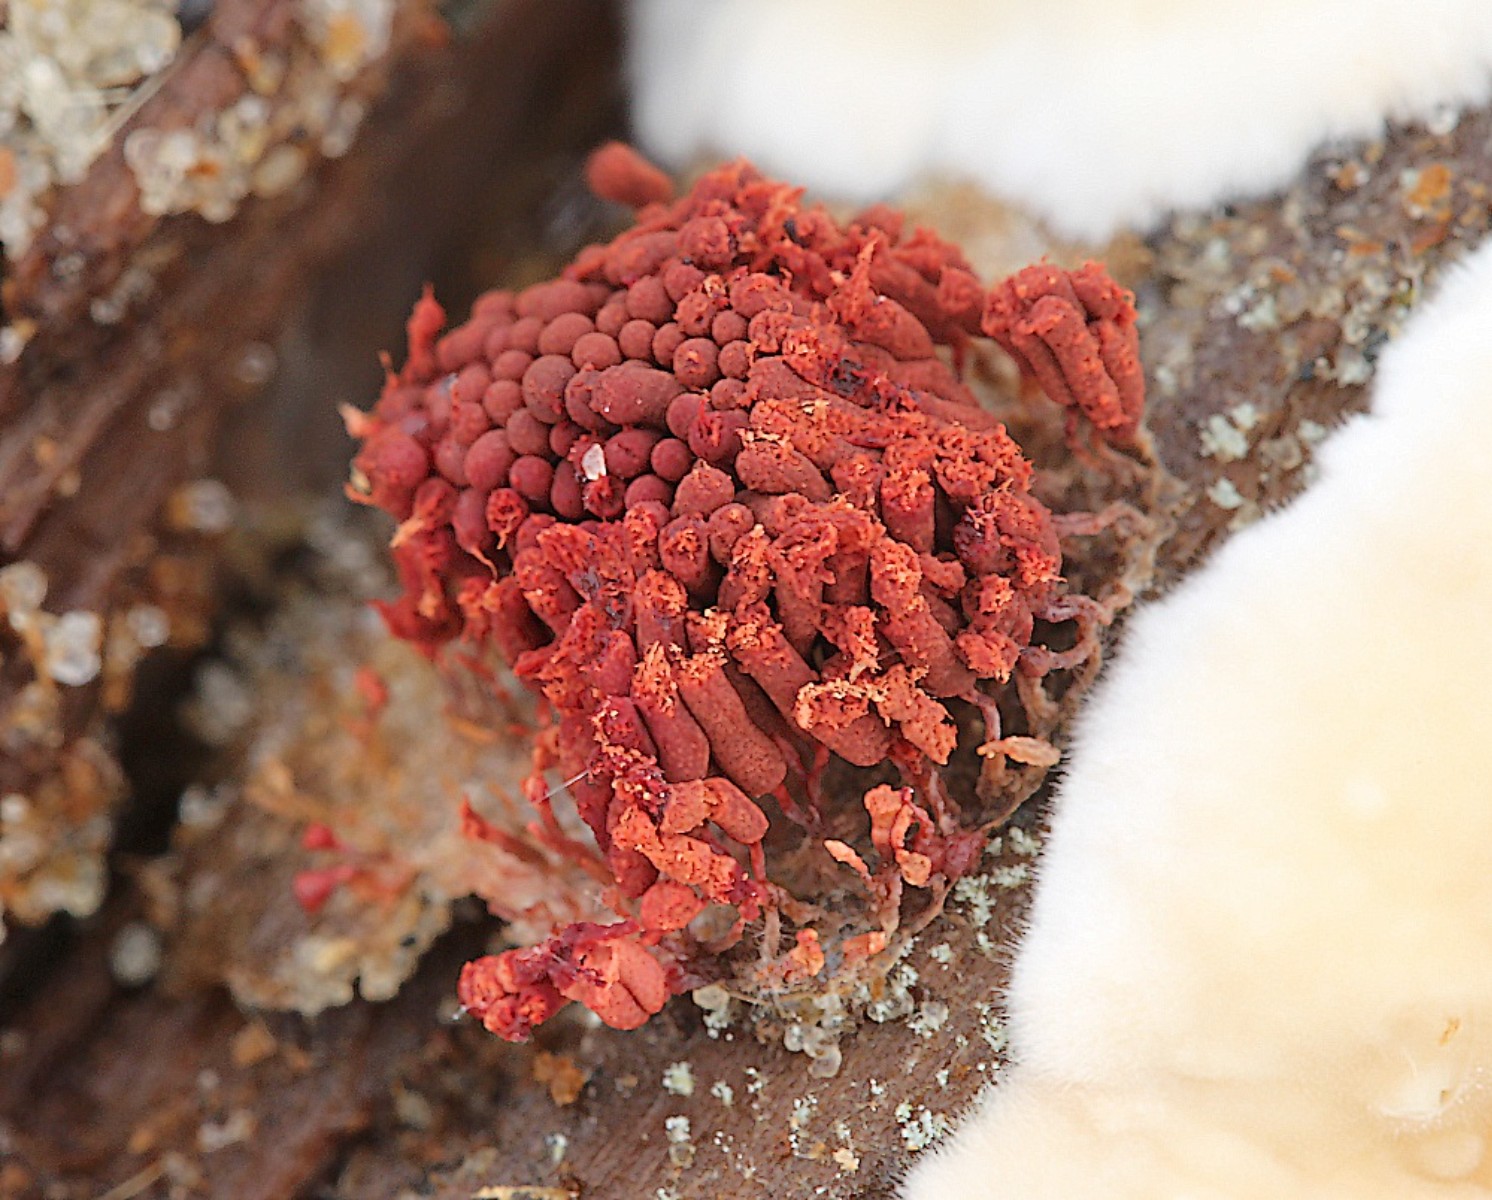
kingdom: Protozoa
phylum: Amoebozoa
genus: Arcyria
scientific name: Arcyria
